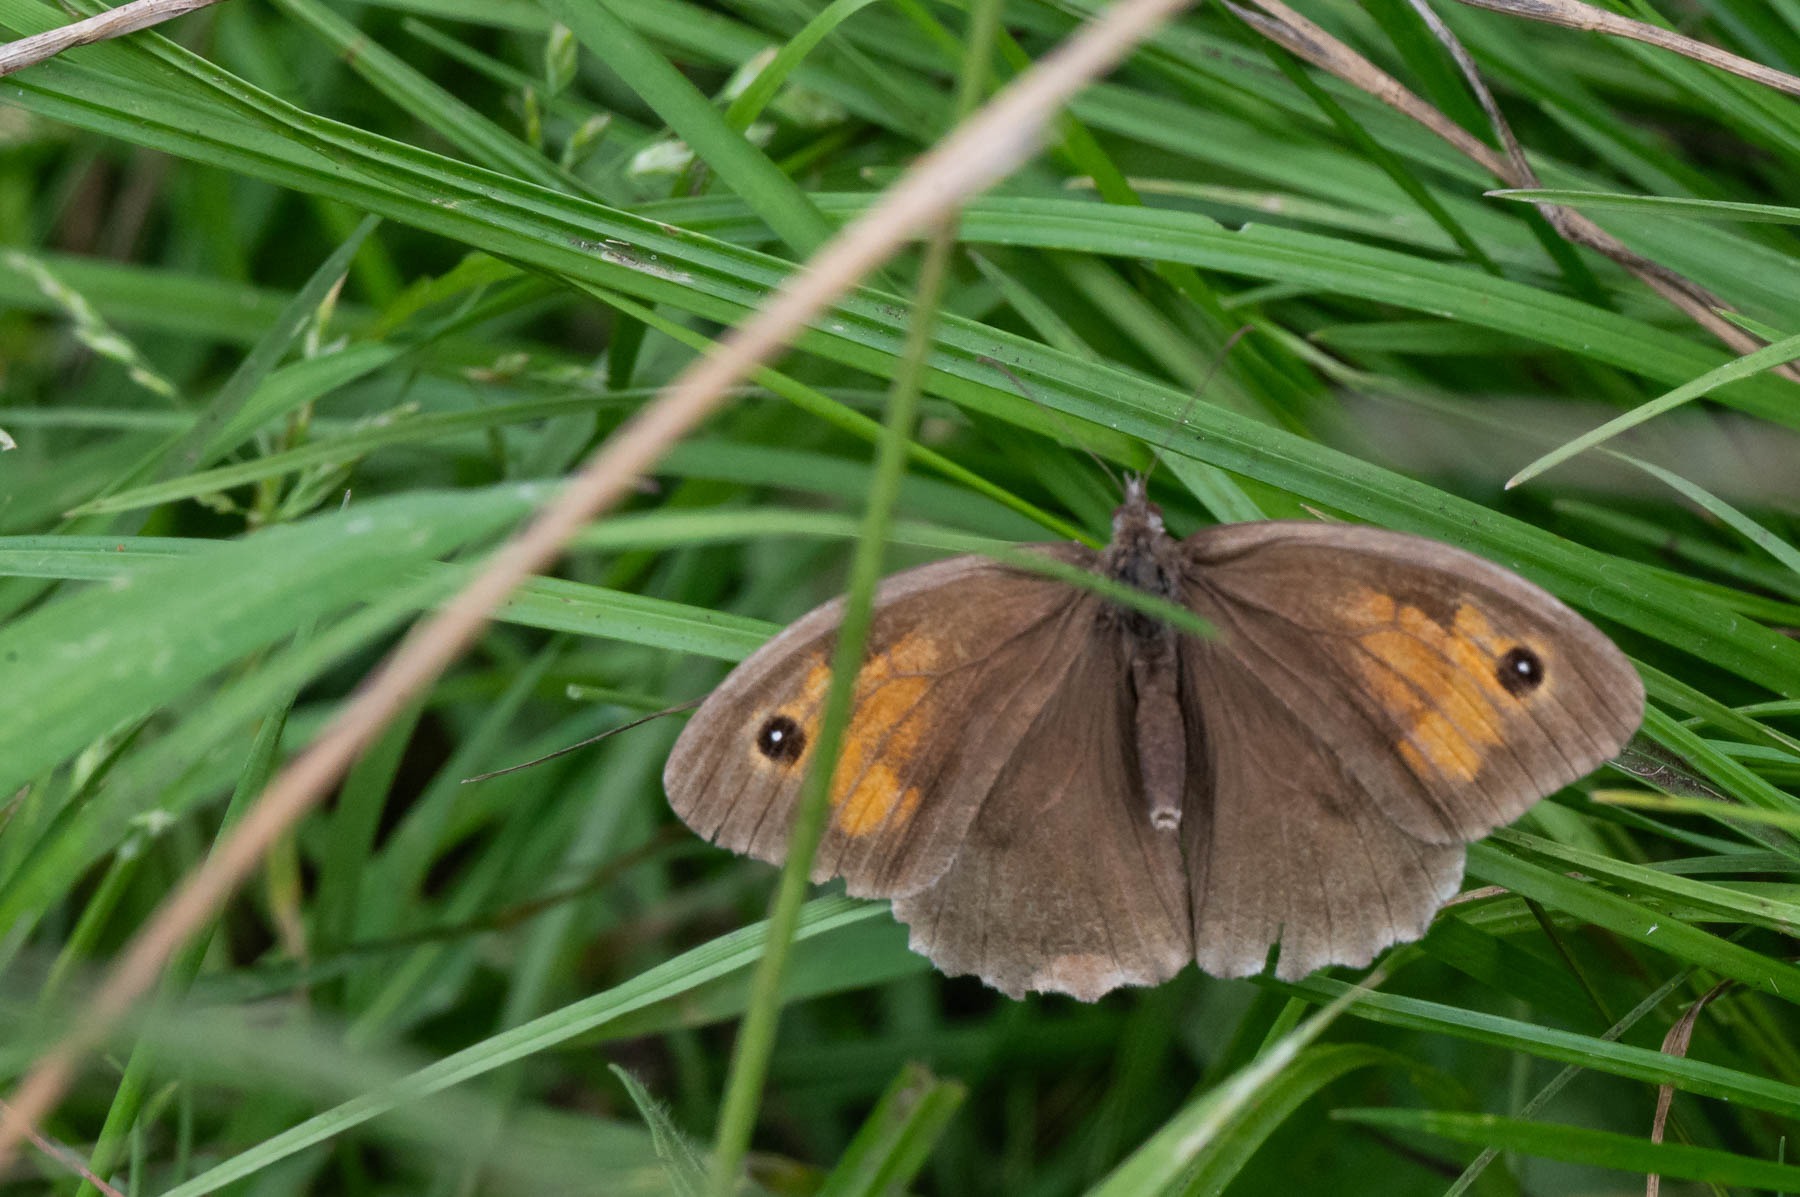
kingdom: Animalia
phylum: Arthropoda
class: Insecta
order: Lepidoptera
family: Nymphalidae
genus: Maniola
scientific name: Maniola jurtina
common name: Græsrandøje
